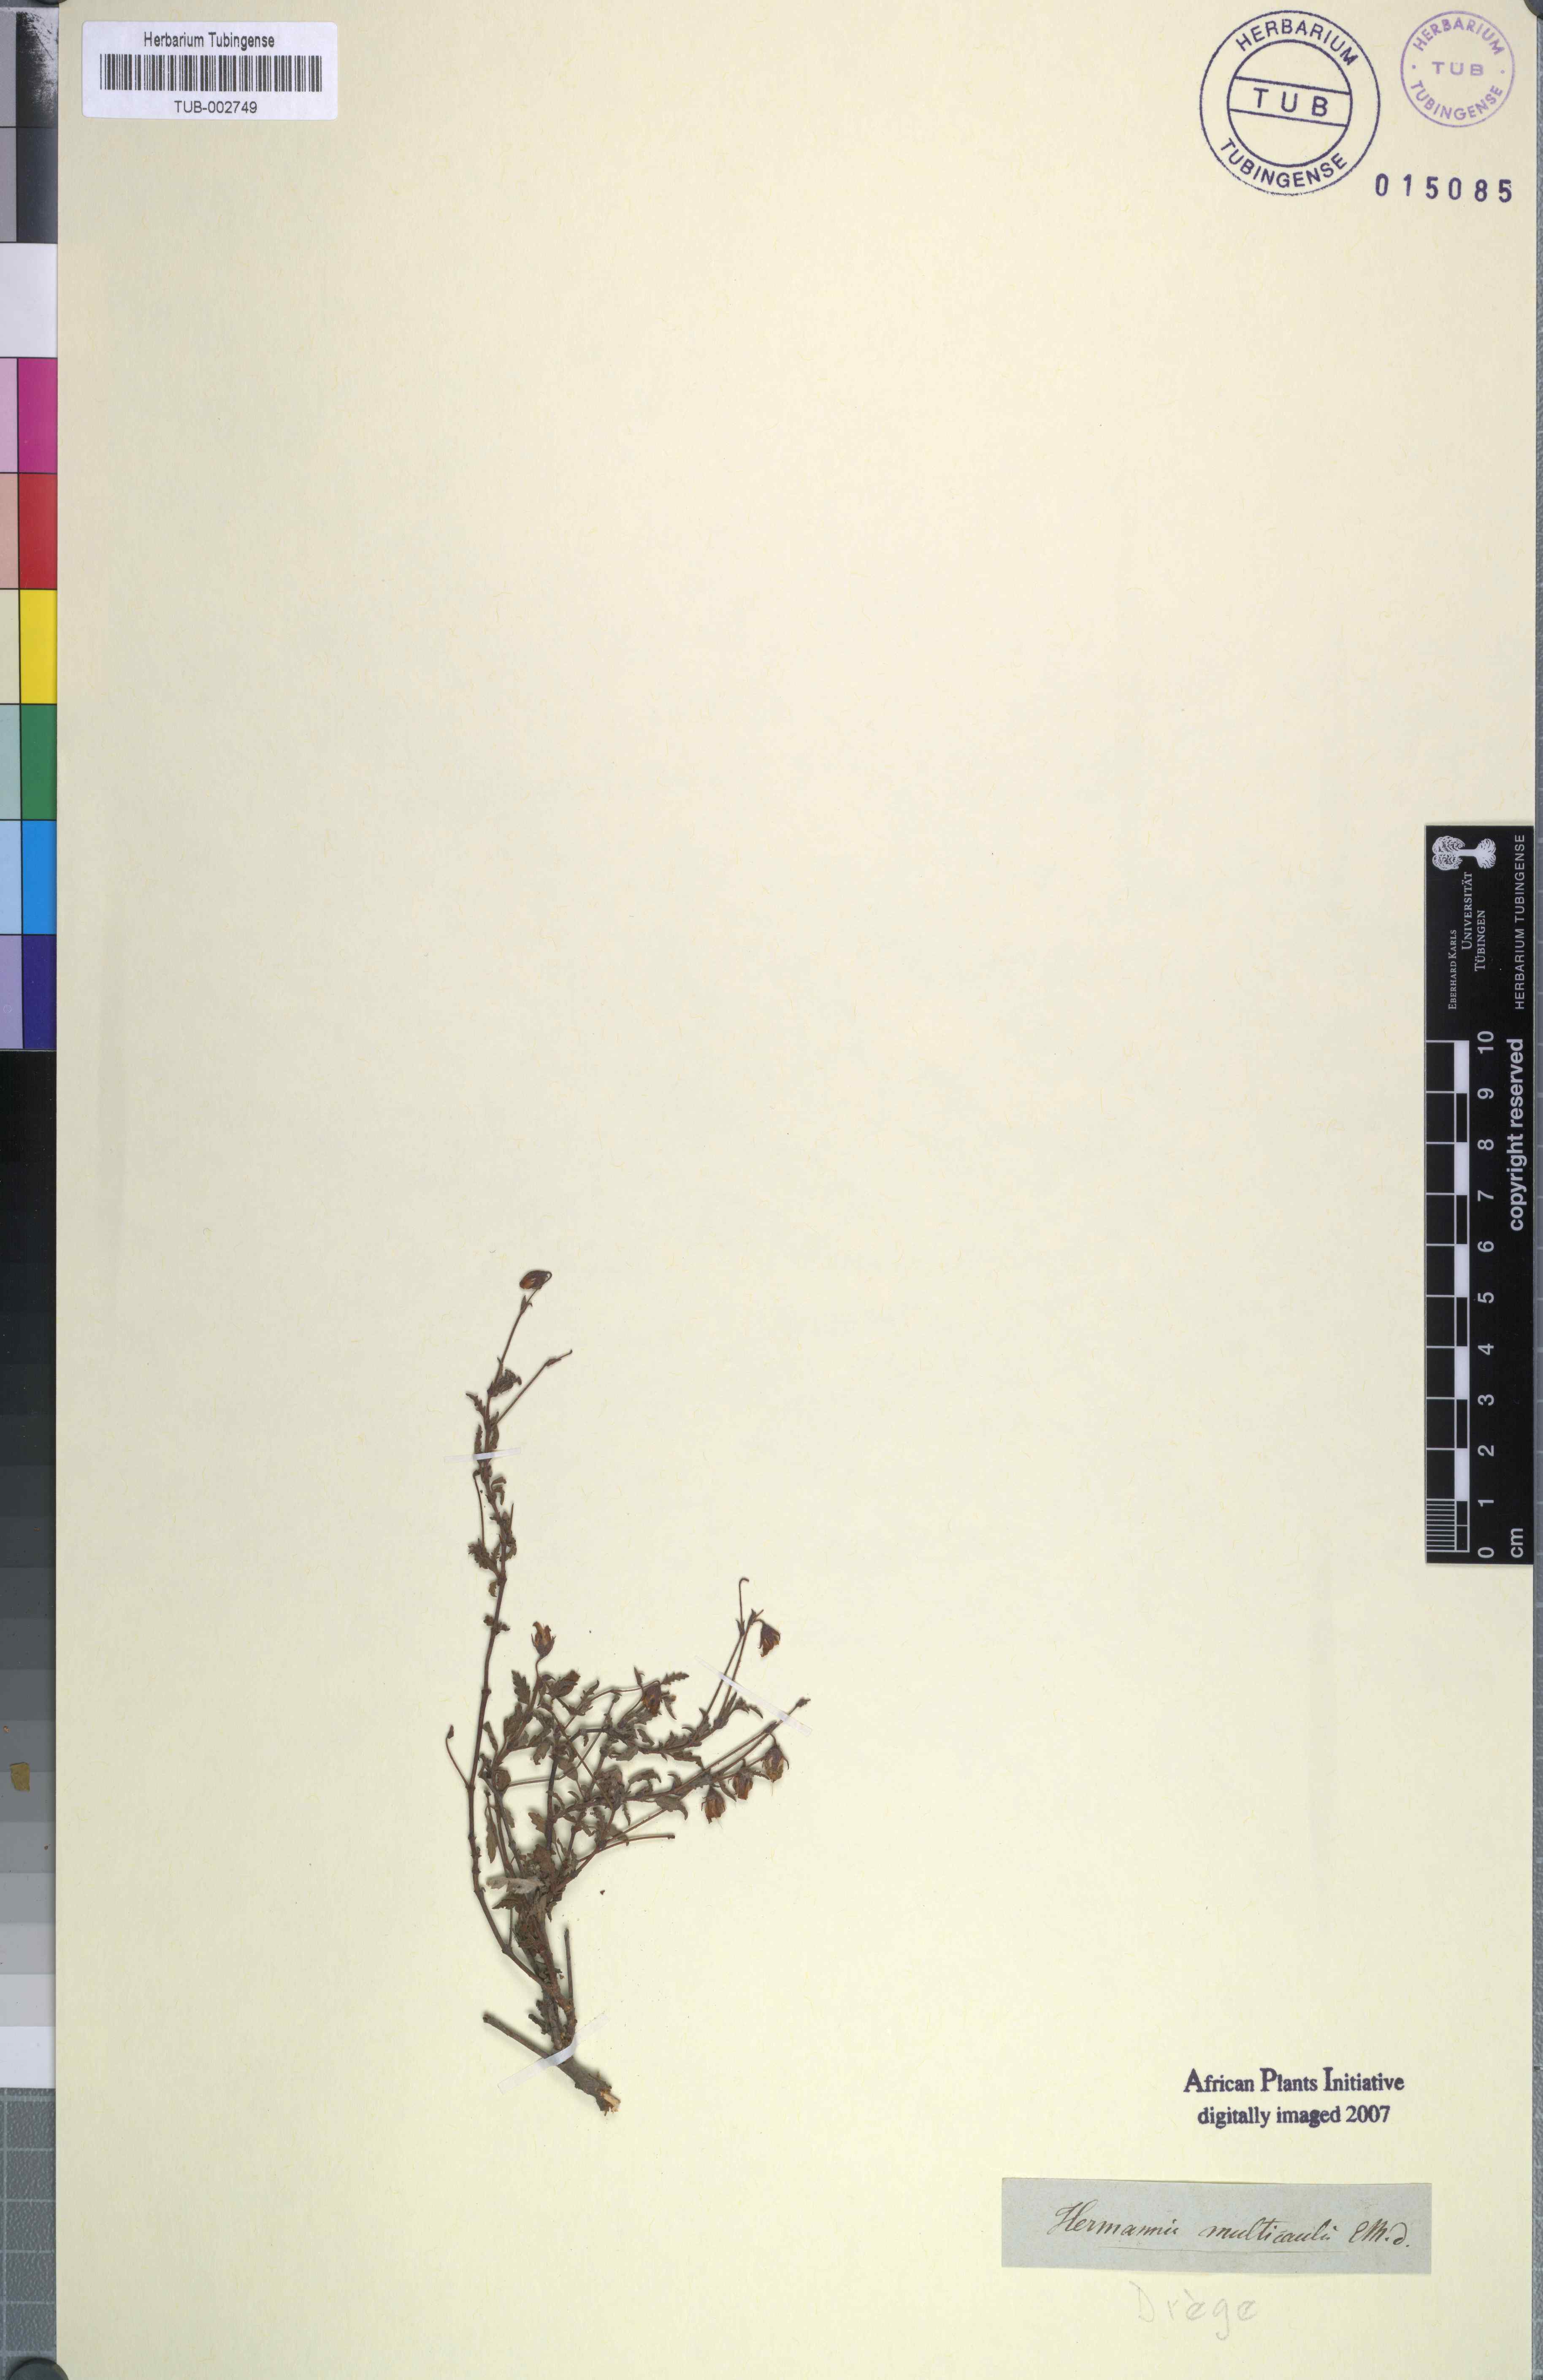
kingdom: Plantae
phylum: Tracheophyta
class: Magnoliopsida
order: Malvales
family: Malvaceae
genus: Hermannia
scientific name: Hermannia erodioides
